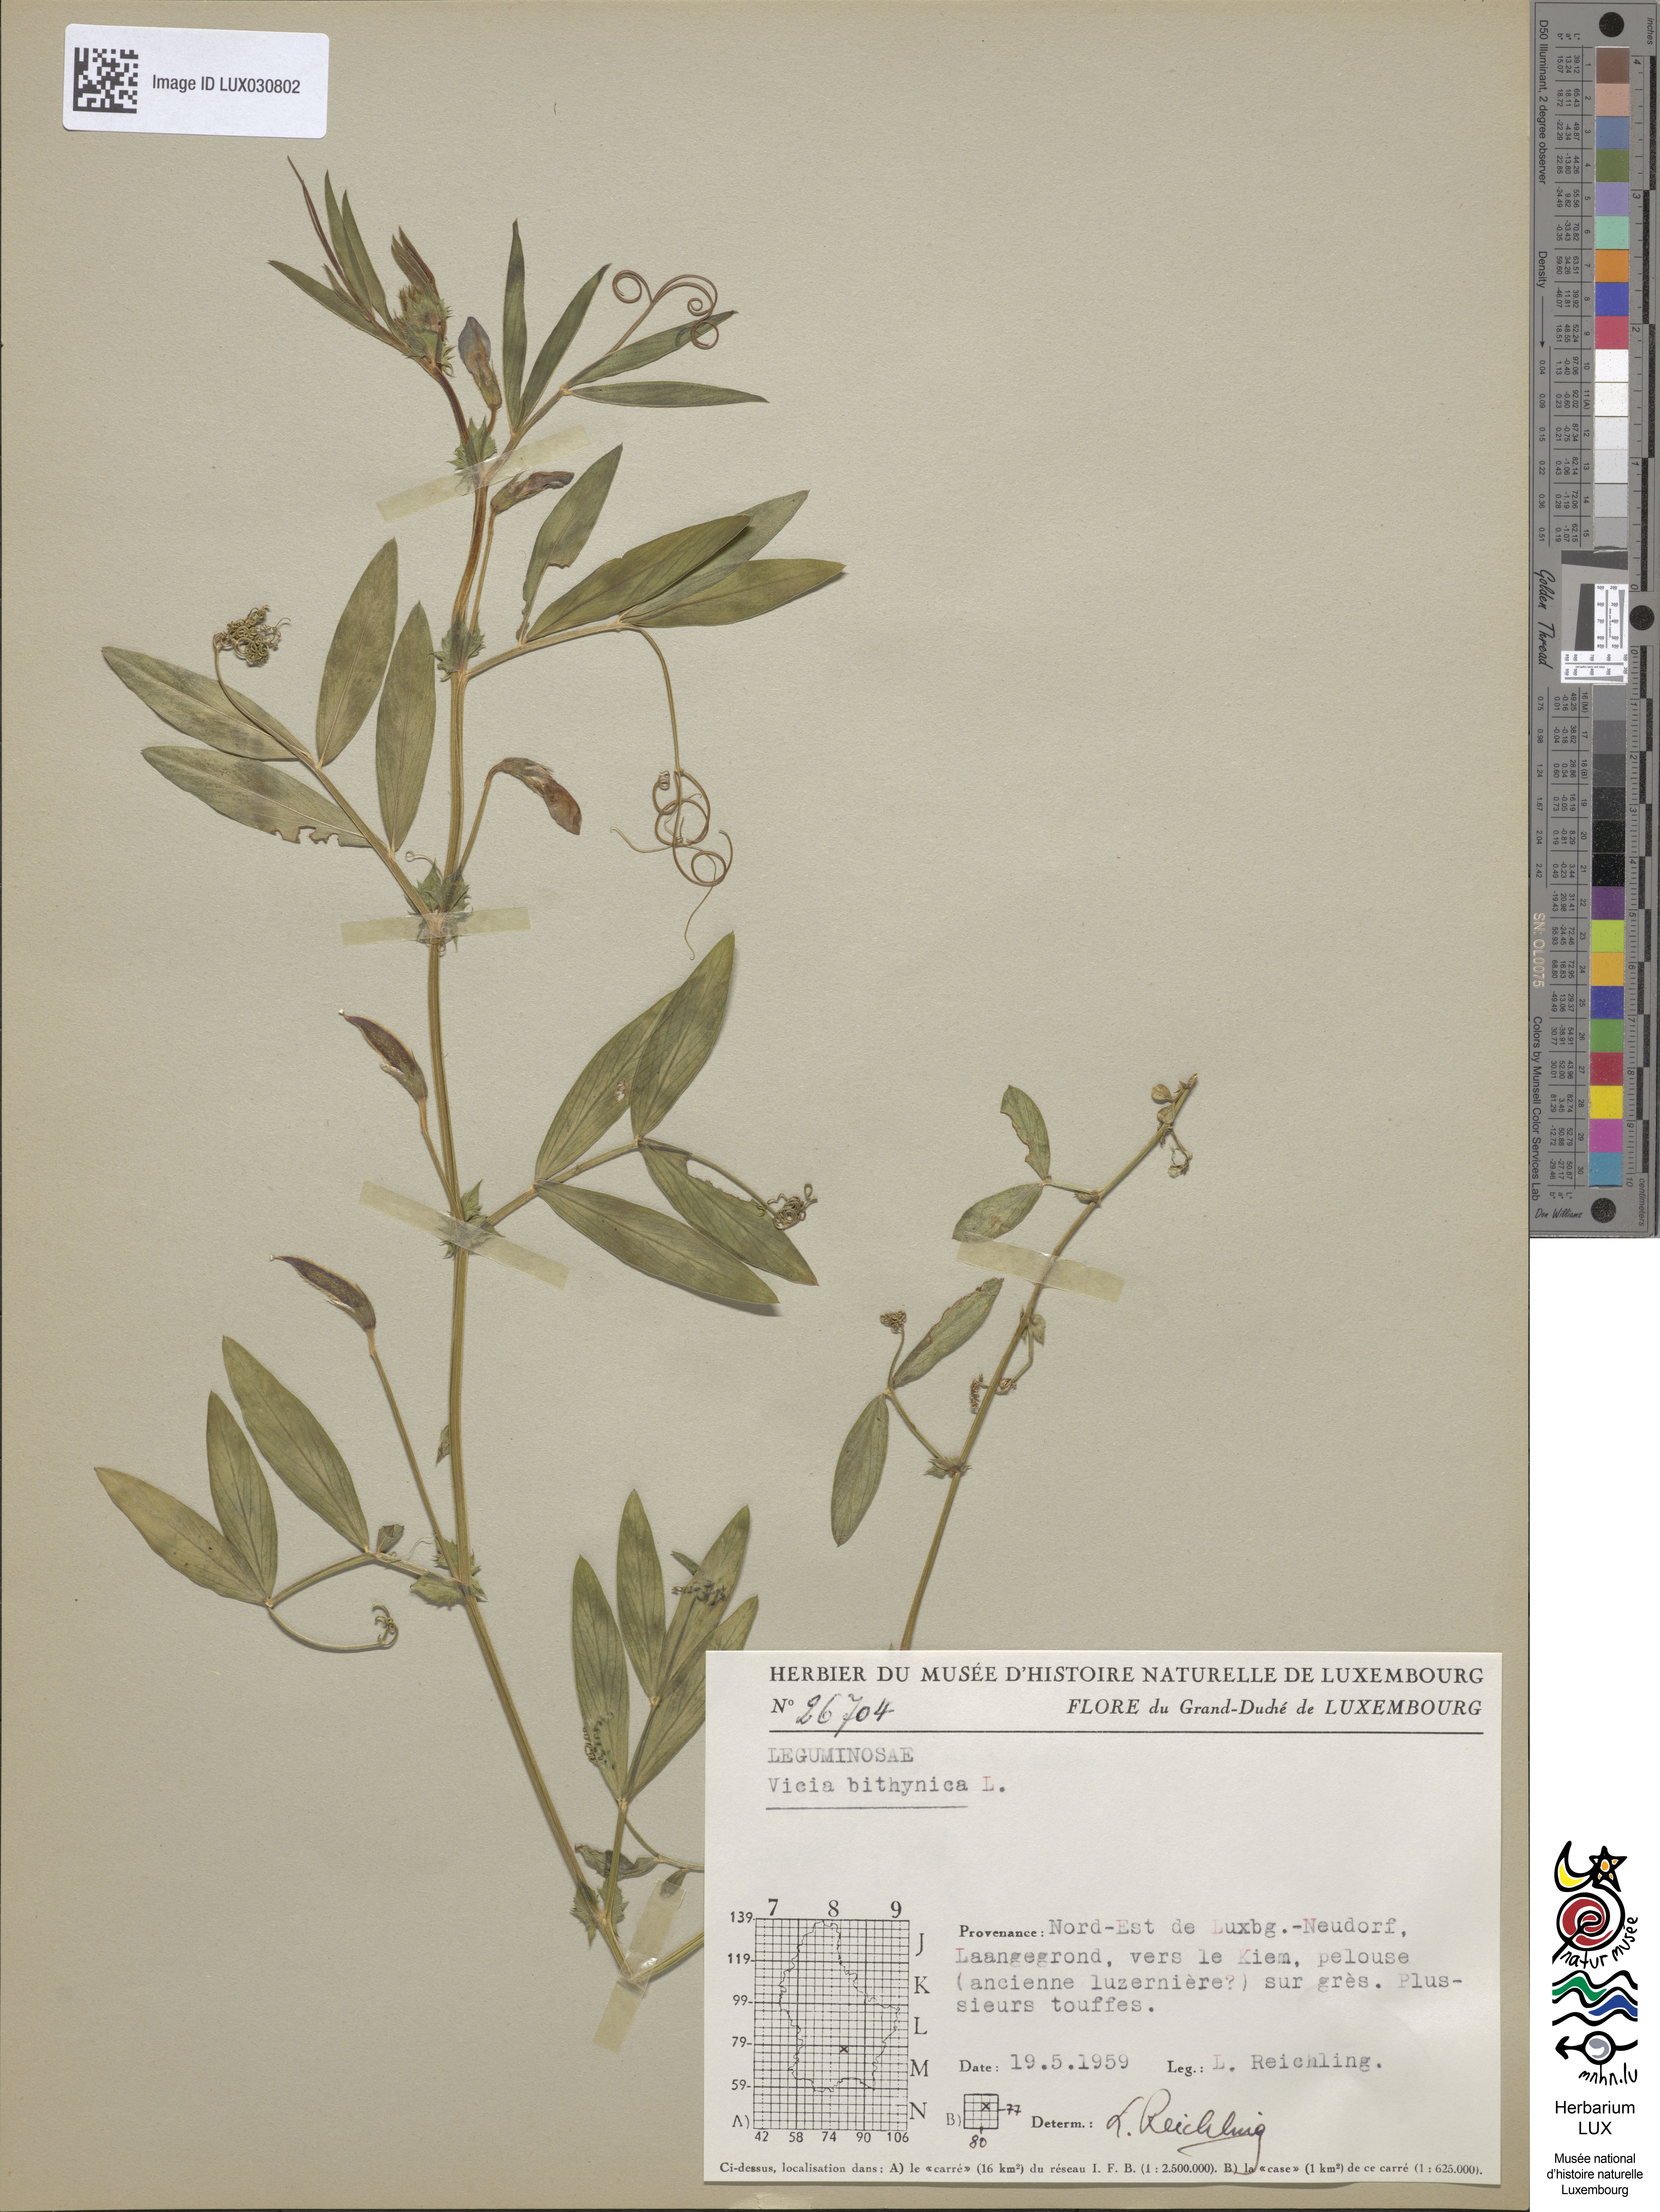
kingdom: Plantae
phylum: Tracheophyta
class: Magnoliopsida
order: Fabales
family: Fabaceae
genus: Vicia
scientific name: Vicia bithynica
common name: Bithynian vetch
